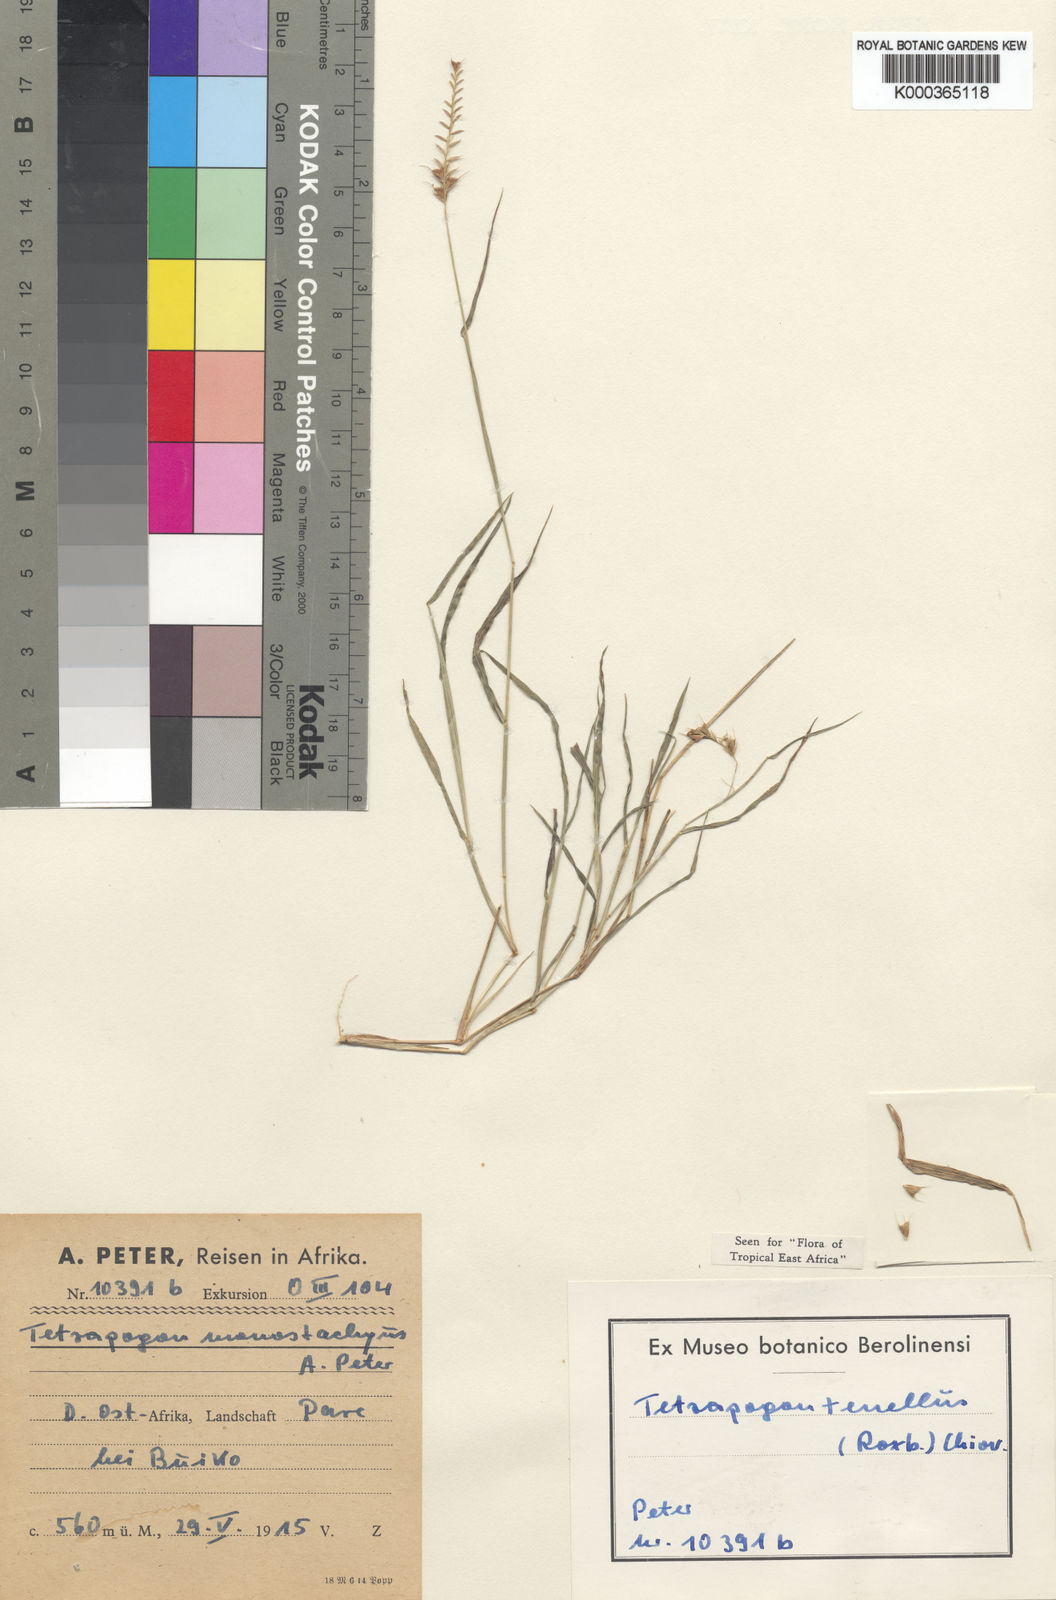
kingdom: Plantae
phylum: Tracheophyta
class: Liliopsida
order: Poales
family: Poaceae
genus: Tetrapogon
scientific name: Tetrapogon tenellus
